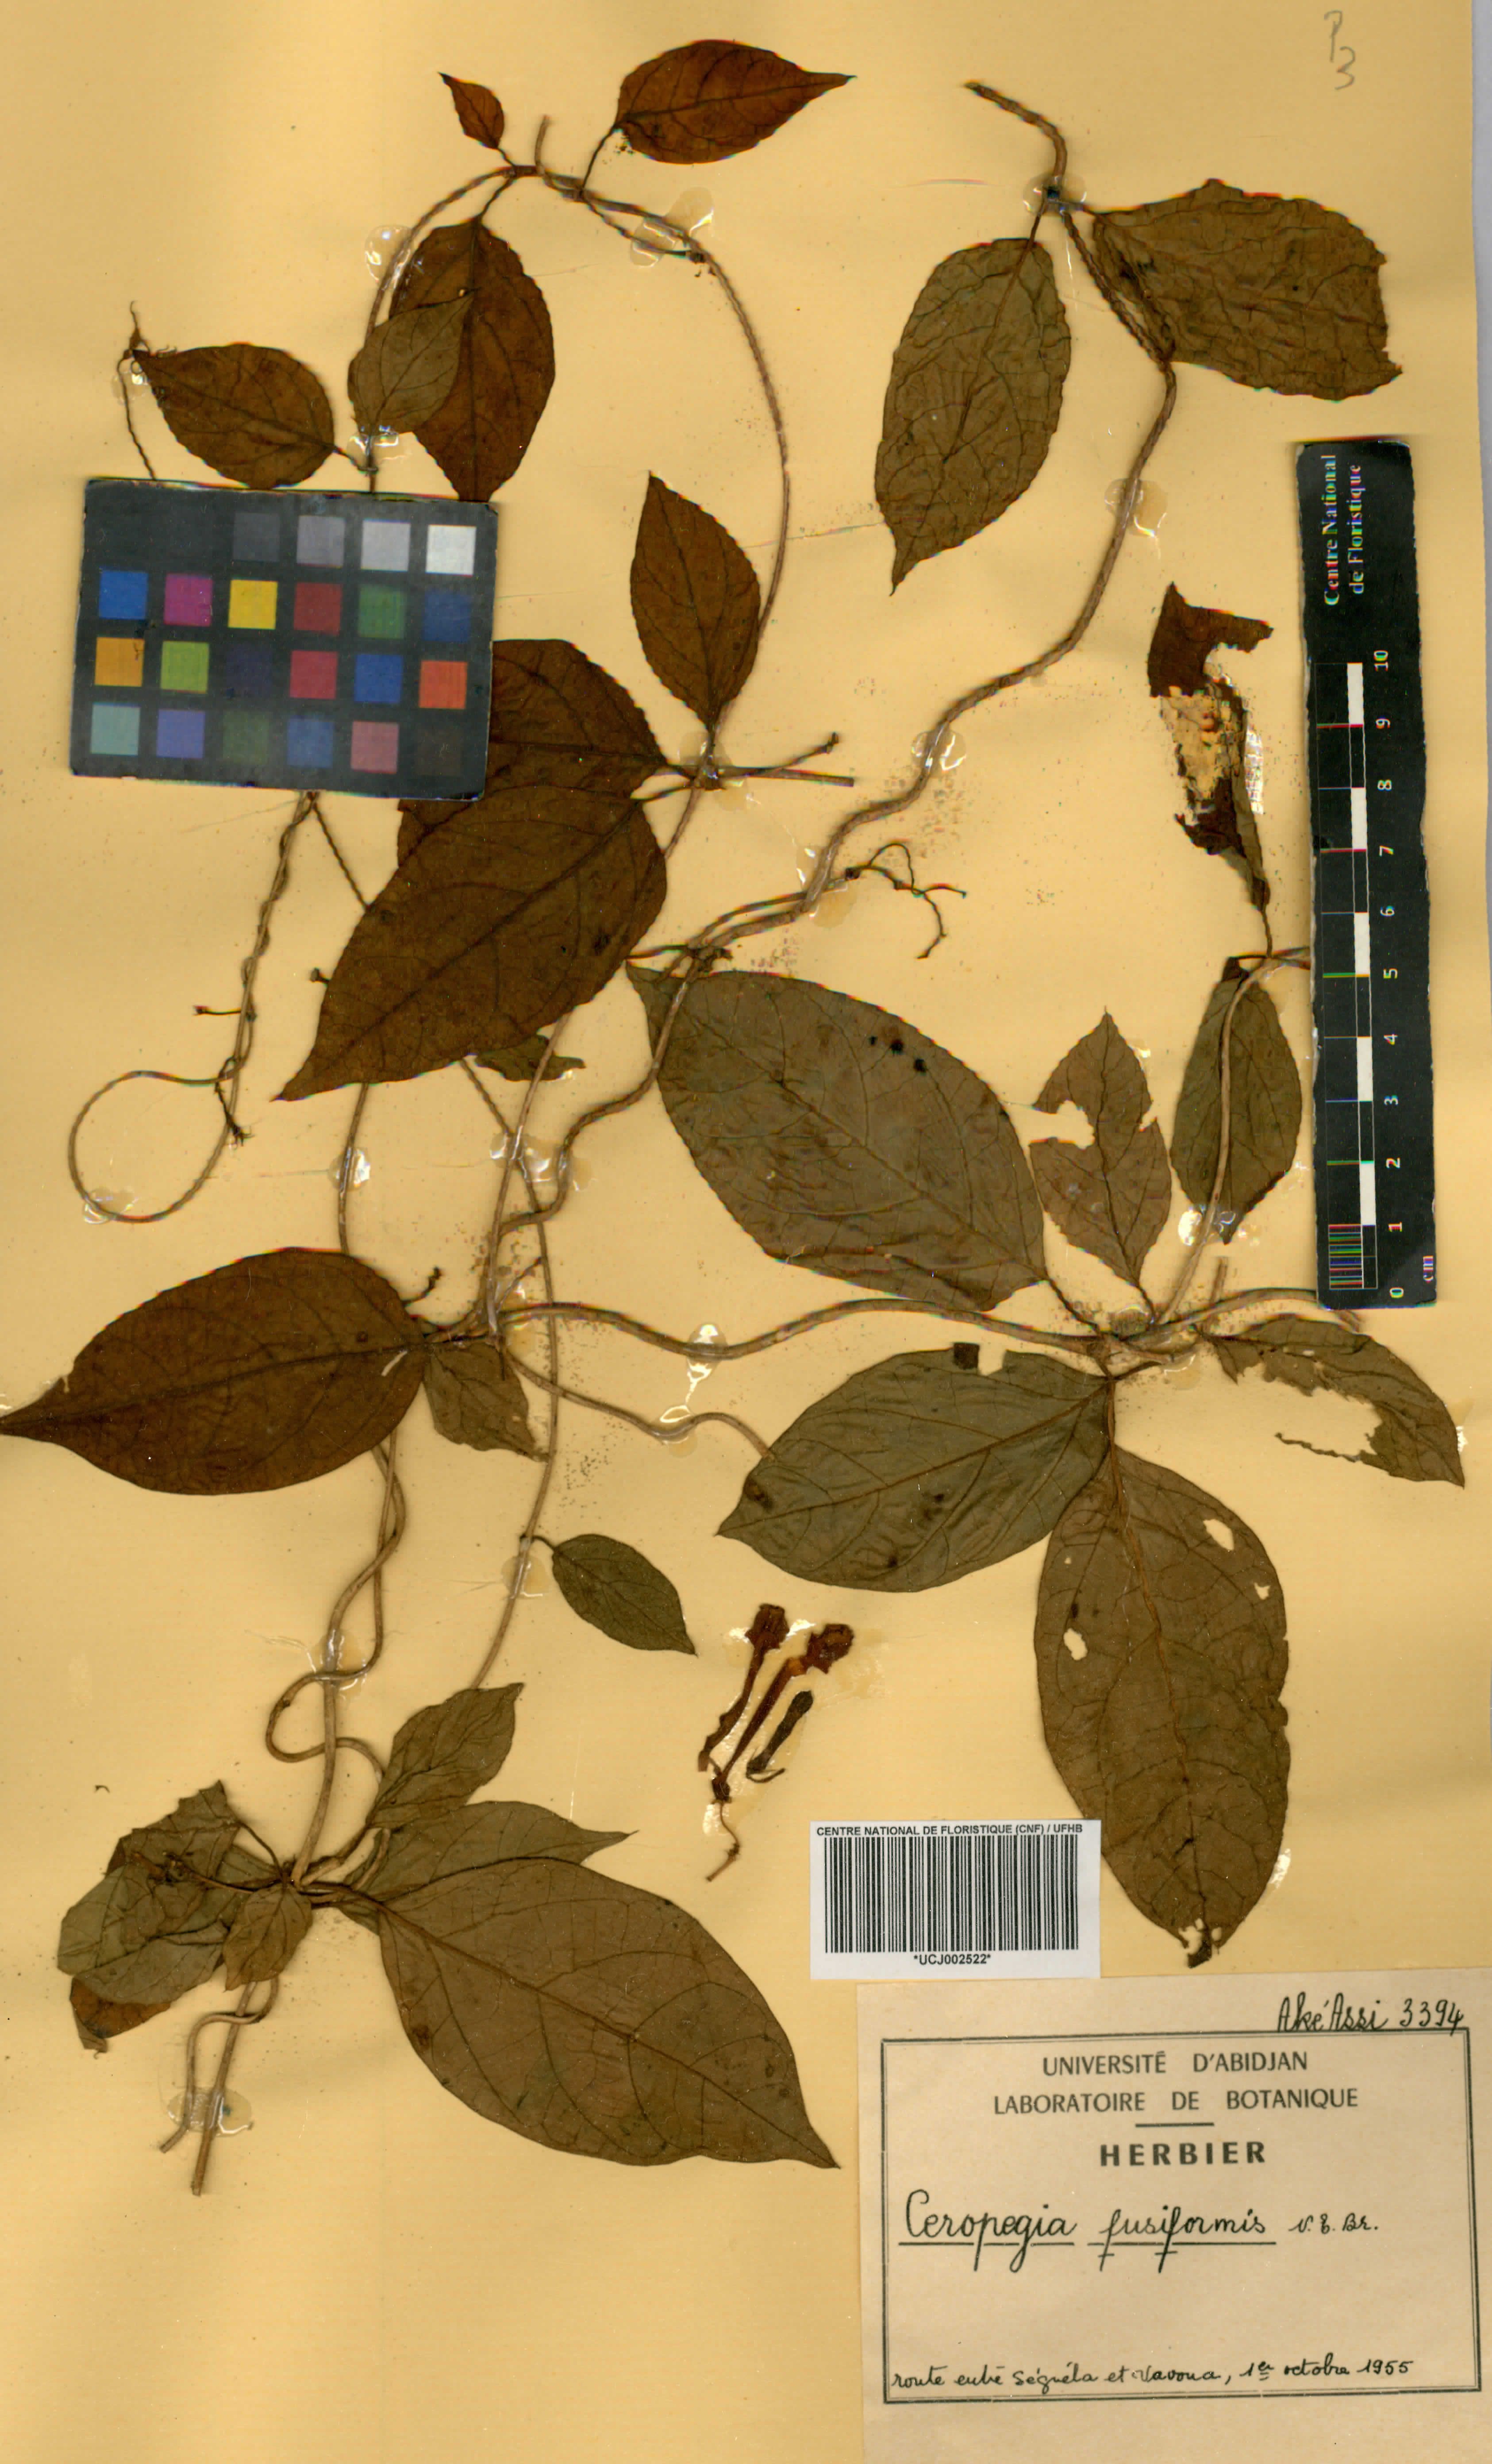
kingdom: Plantae
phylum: Tracheophyta
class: Magnoliopsida
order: Gentianales
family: Apocynaceae
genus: Ceropegia
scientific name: Ceropegia fusiformis
